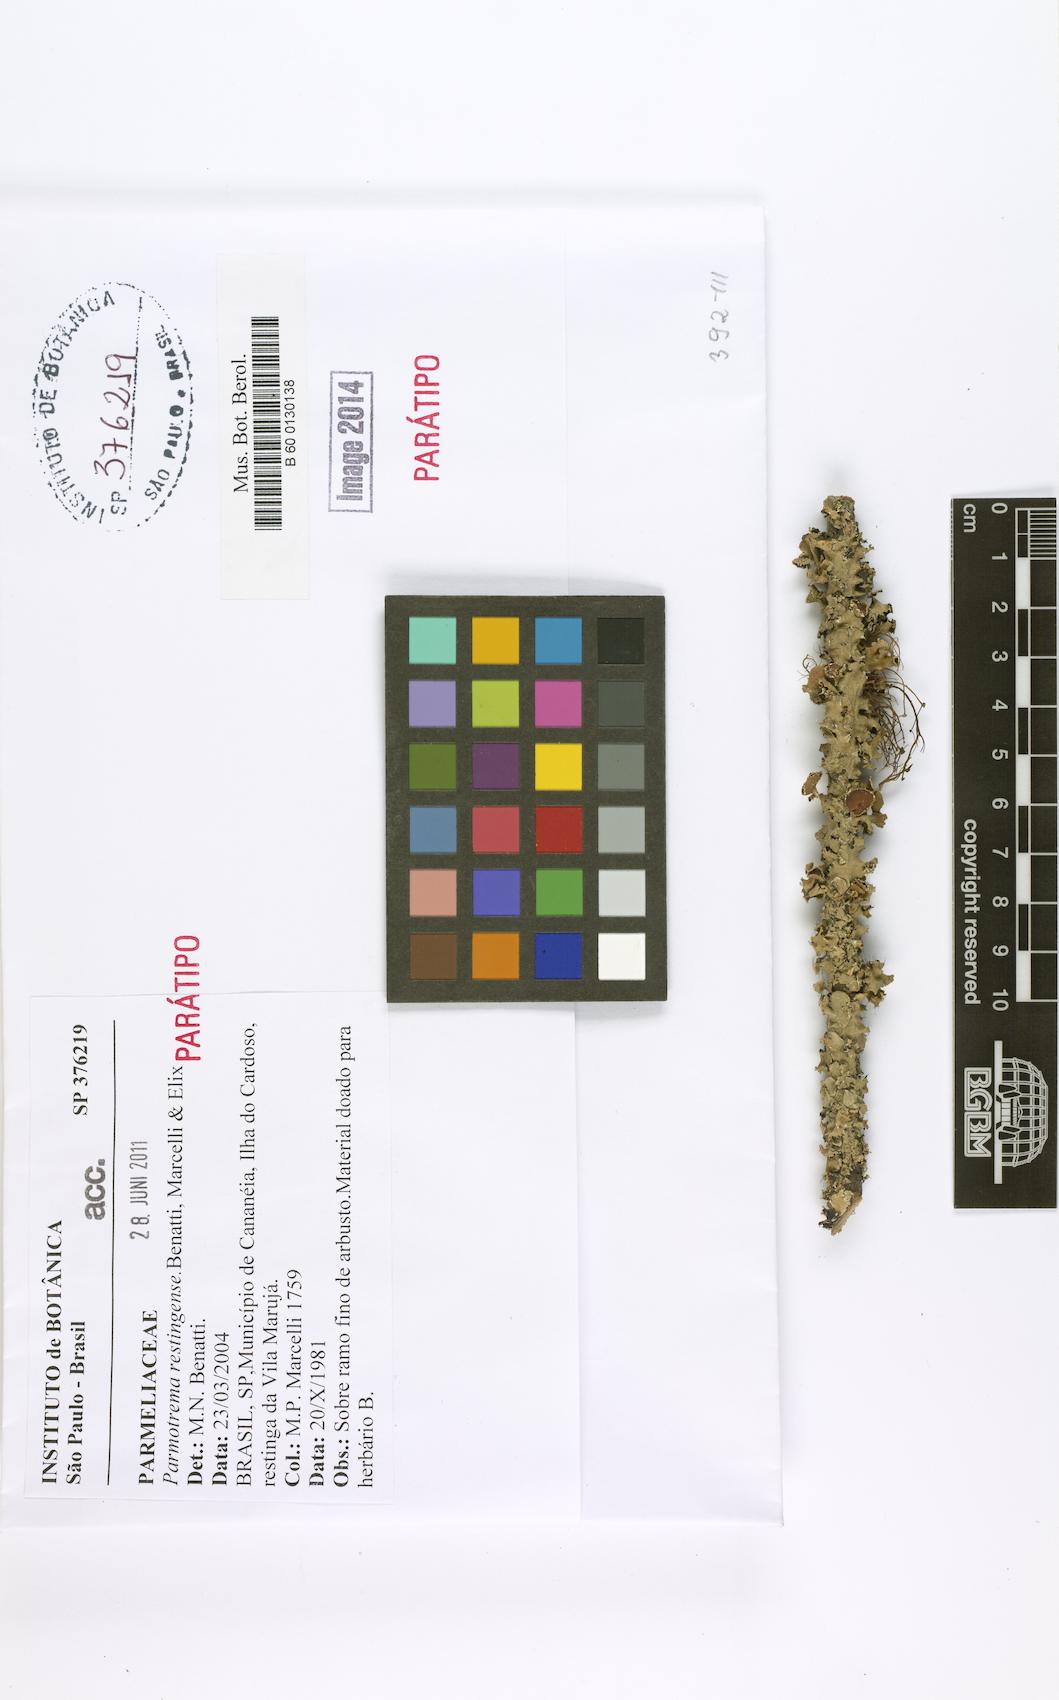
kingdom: Fungi
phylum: Ascomycota
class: Lecanoromycetes
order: Lecanorales
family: Parmeliaceae
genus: Parmotrema
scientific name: Parmotrema restingense
